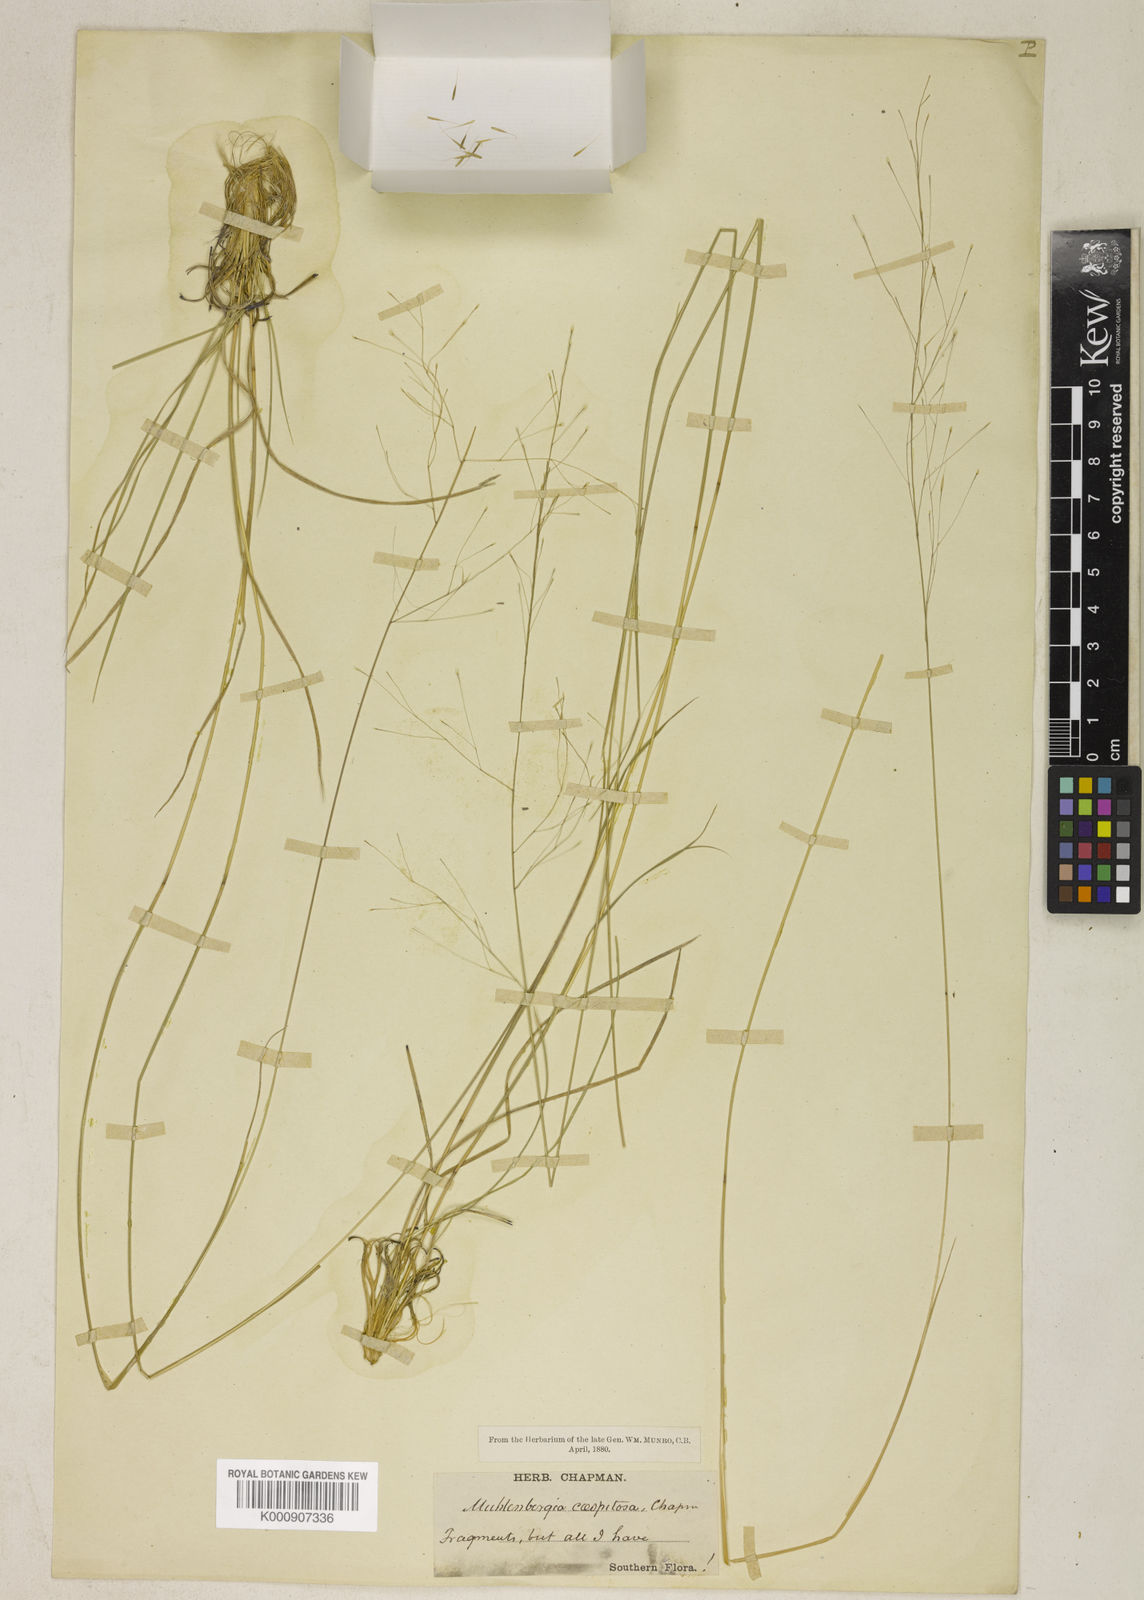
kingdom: Plantae
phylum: Tracheophyta
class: Liliopsida
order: Poales
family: Poaceae
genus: Muhlenbergia
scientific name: Muhlenbergia expansa
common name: Savannah hairgrass
